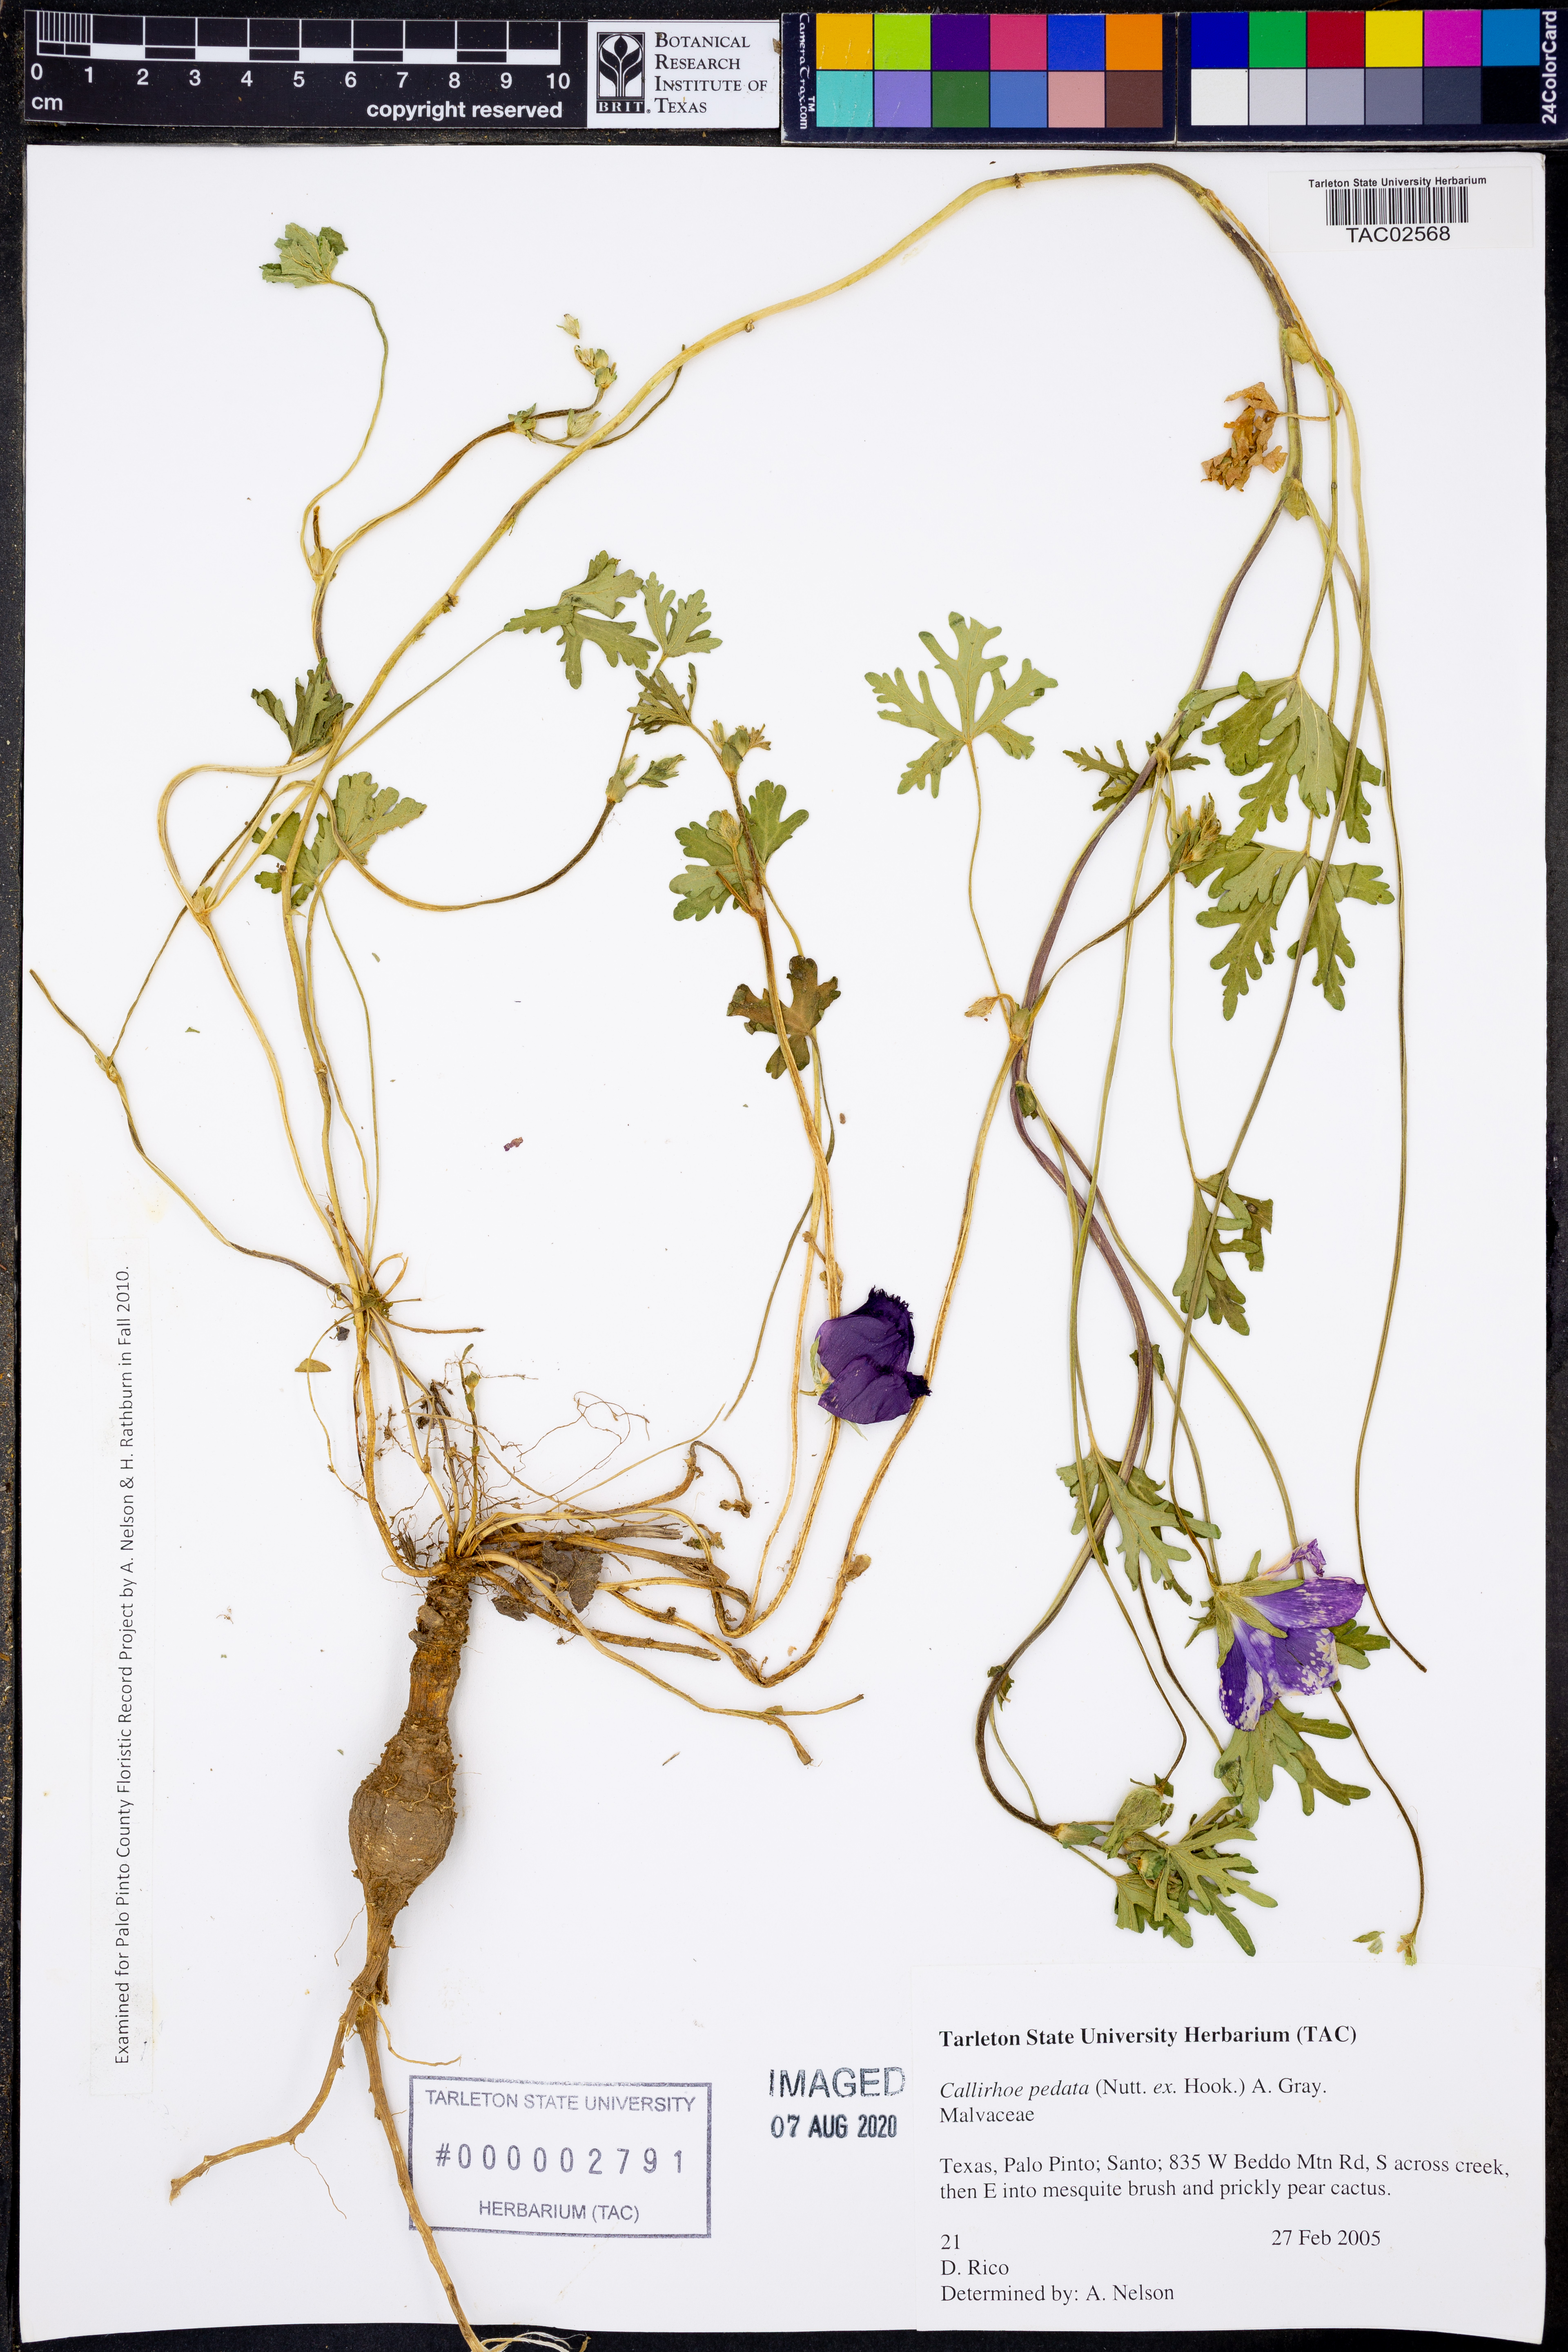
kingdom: Plantae
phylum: Tracheophyta
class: Magnoliopsida
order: Malvales
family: Malvaceae
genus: Callirhoe
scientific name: Callirhoe pedata
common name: Finger poppy-mallow
